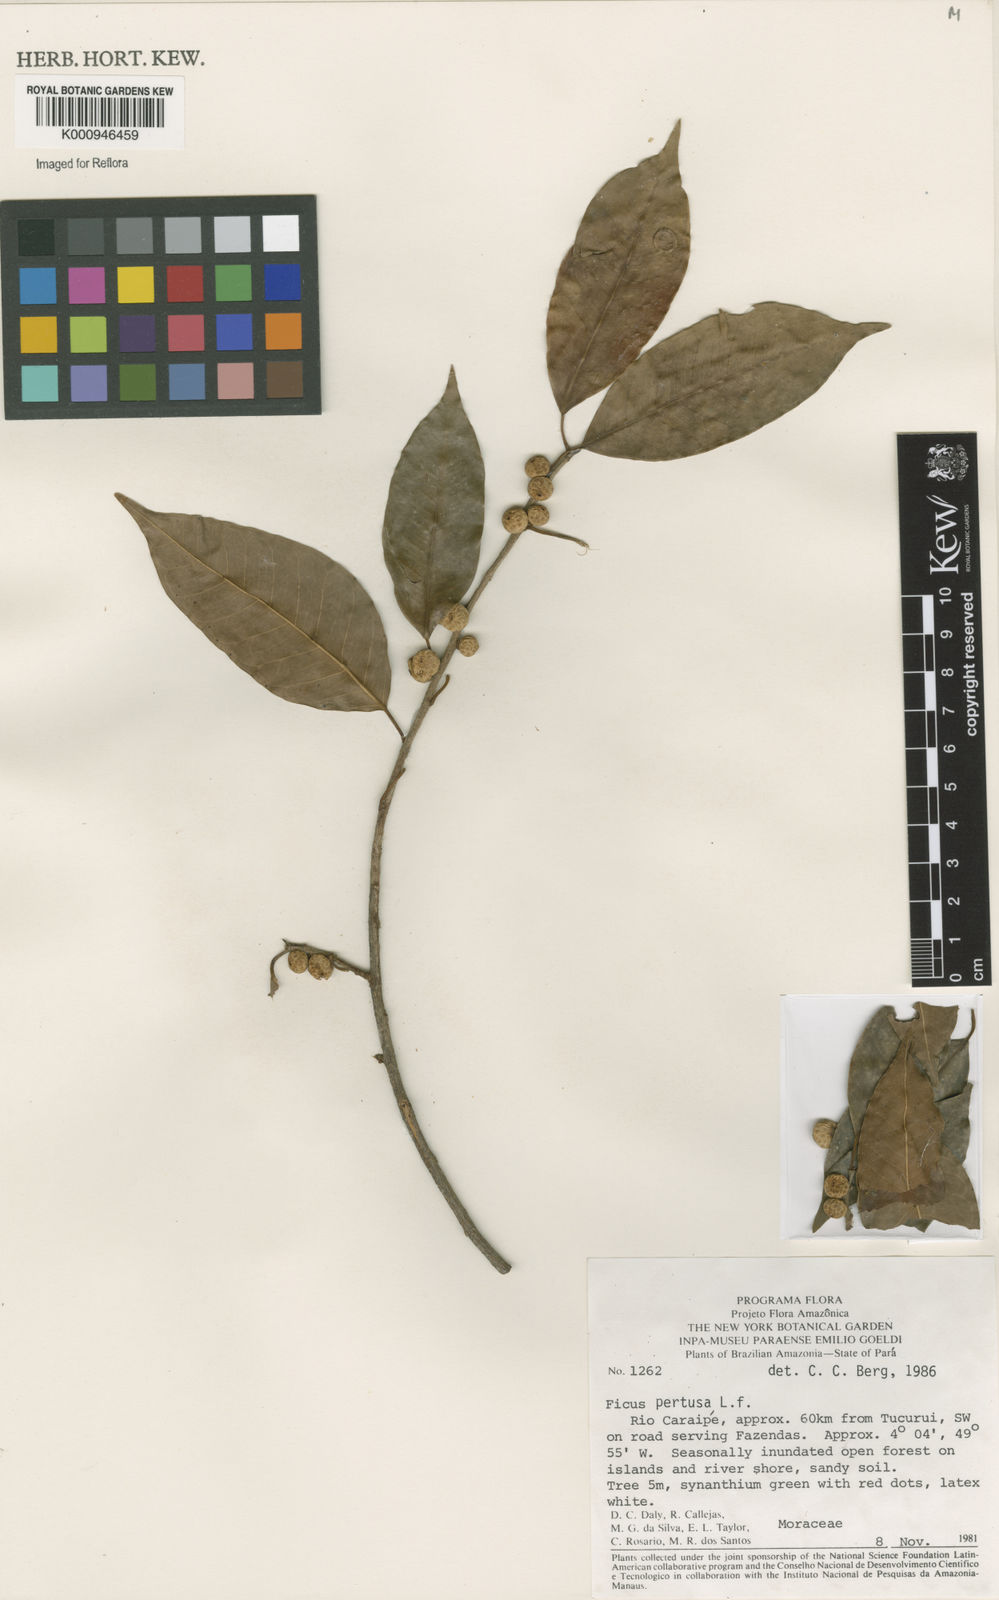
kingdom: Plantae
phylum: Tracheophyta
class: Magnoliopsida
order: Rosales
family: Moraceae
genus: Ficus
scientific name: Ficus pertusa
